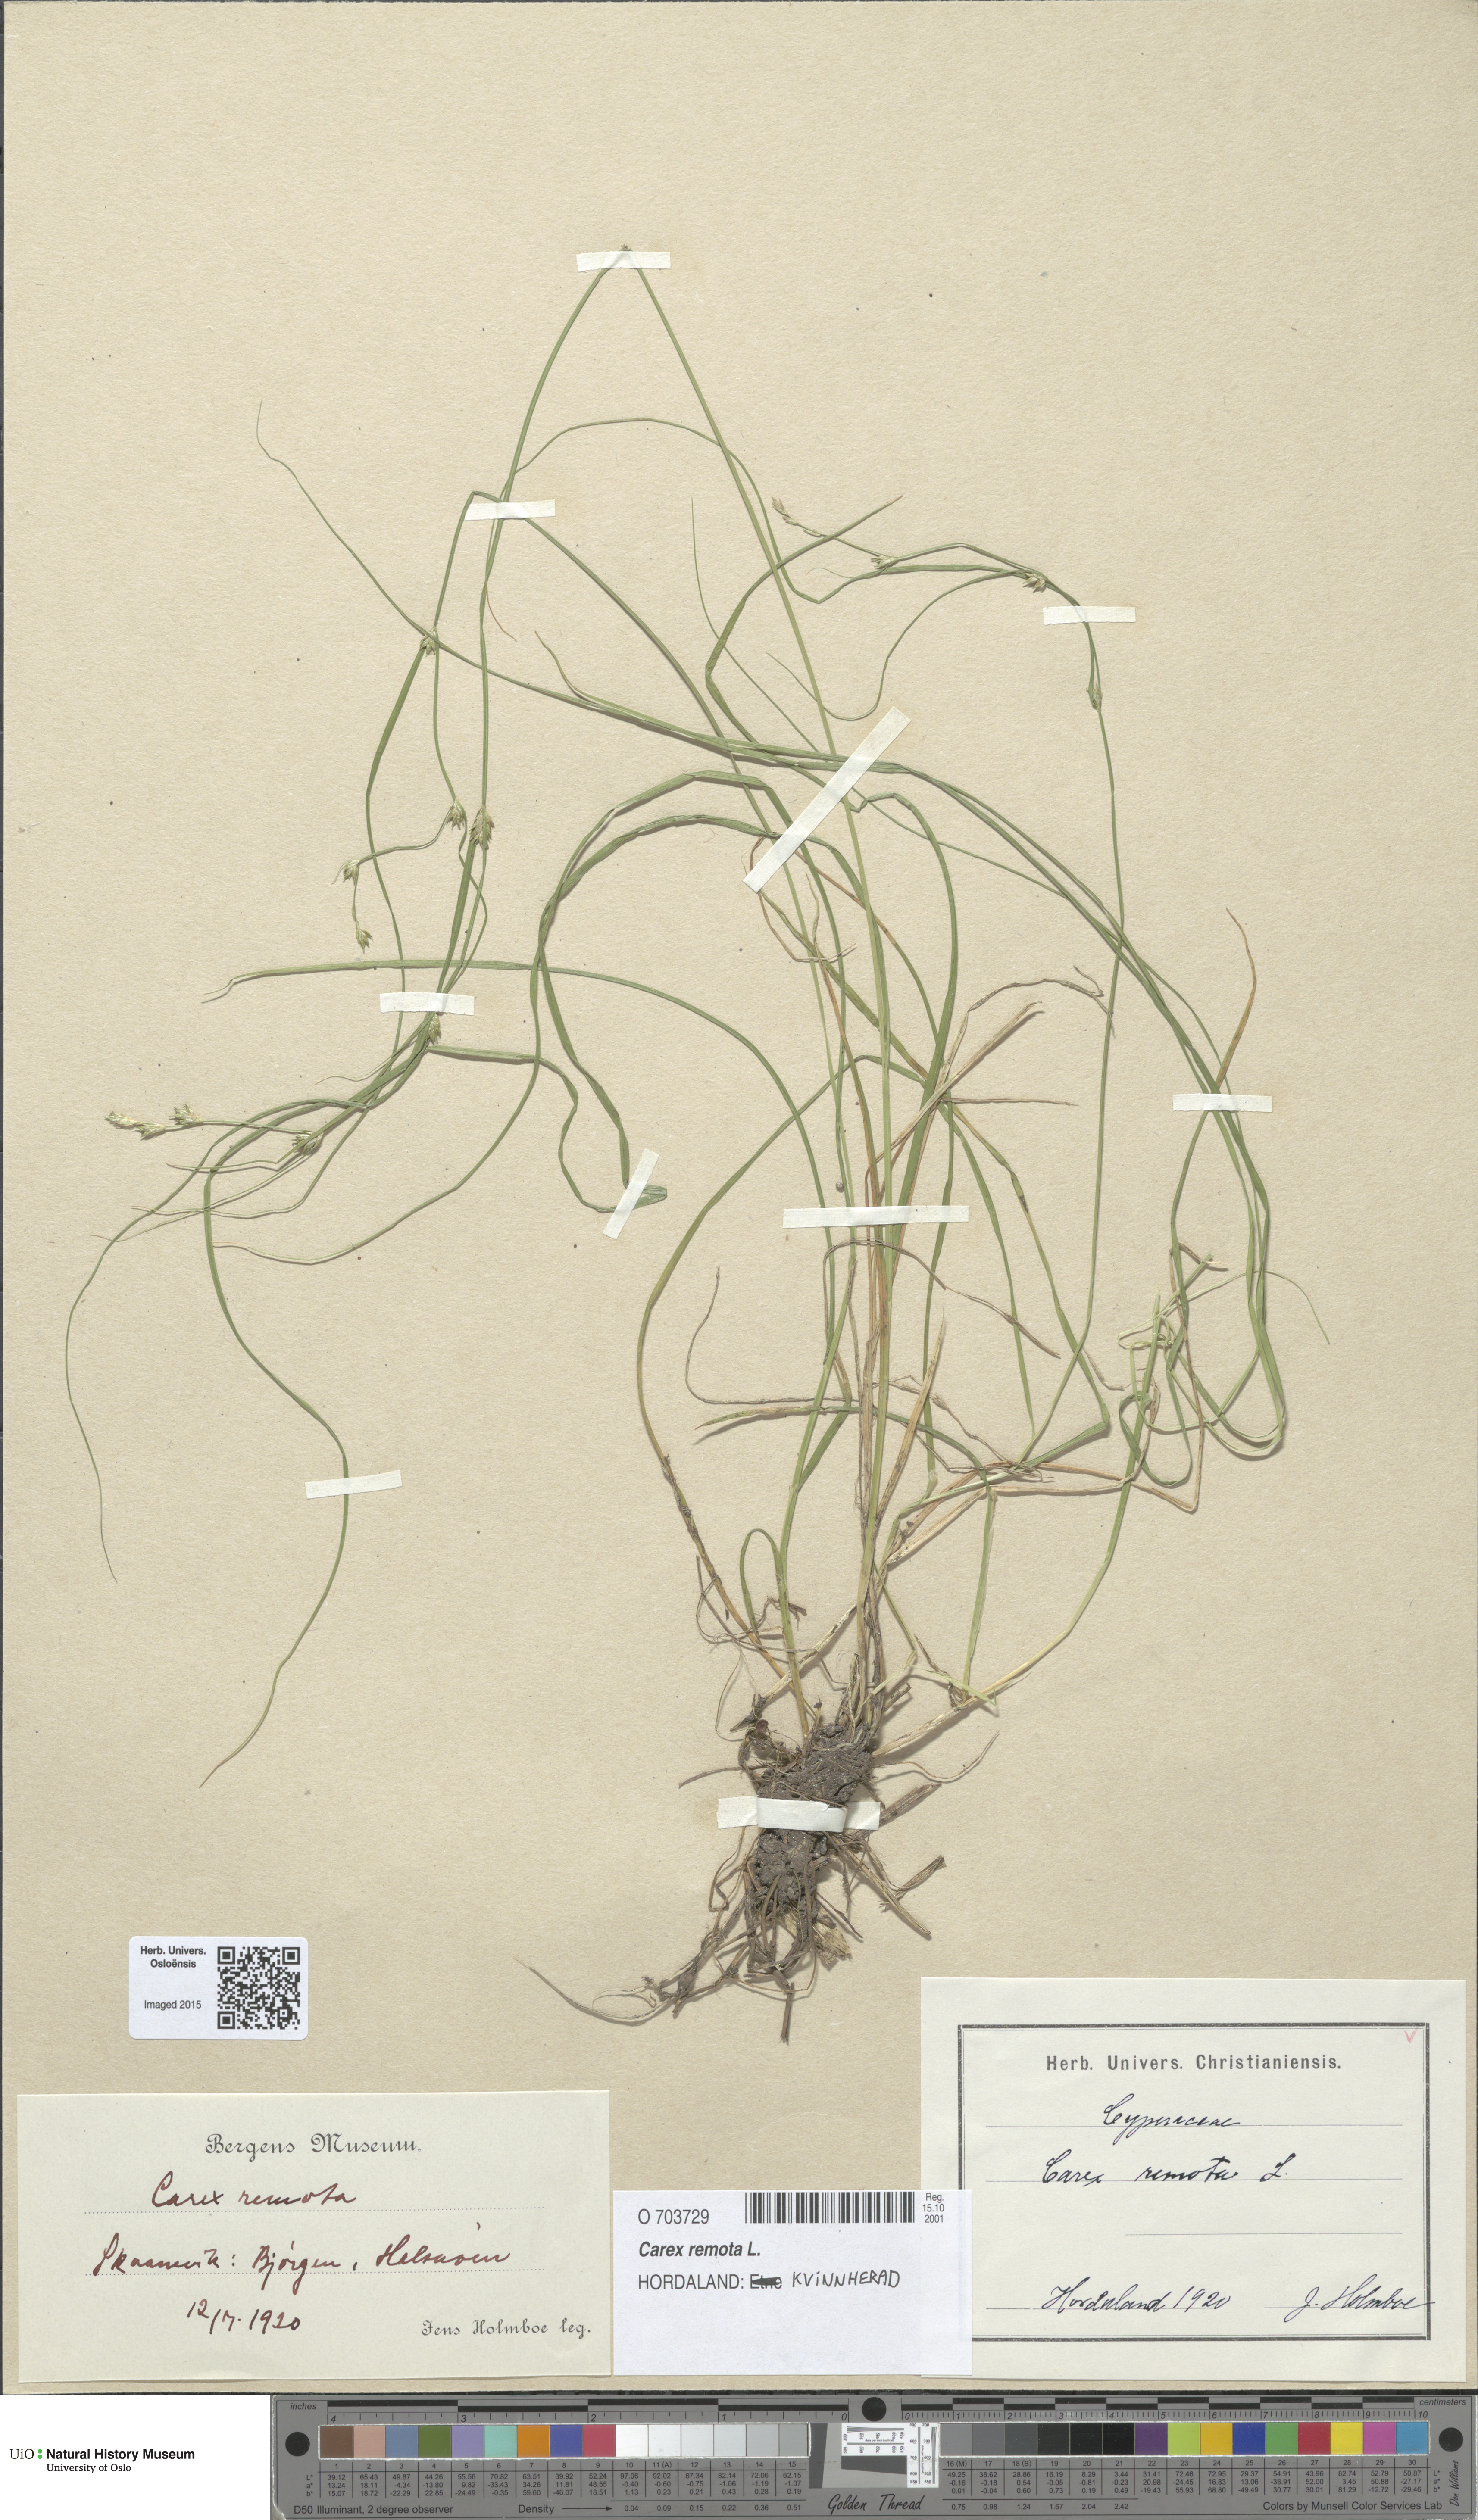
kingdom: Plantae
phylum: Tracheophyta
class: Liliopsida
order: Poales
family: Cyperaceae
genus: Carex
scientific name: Carex remota
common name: Remote sedge
